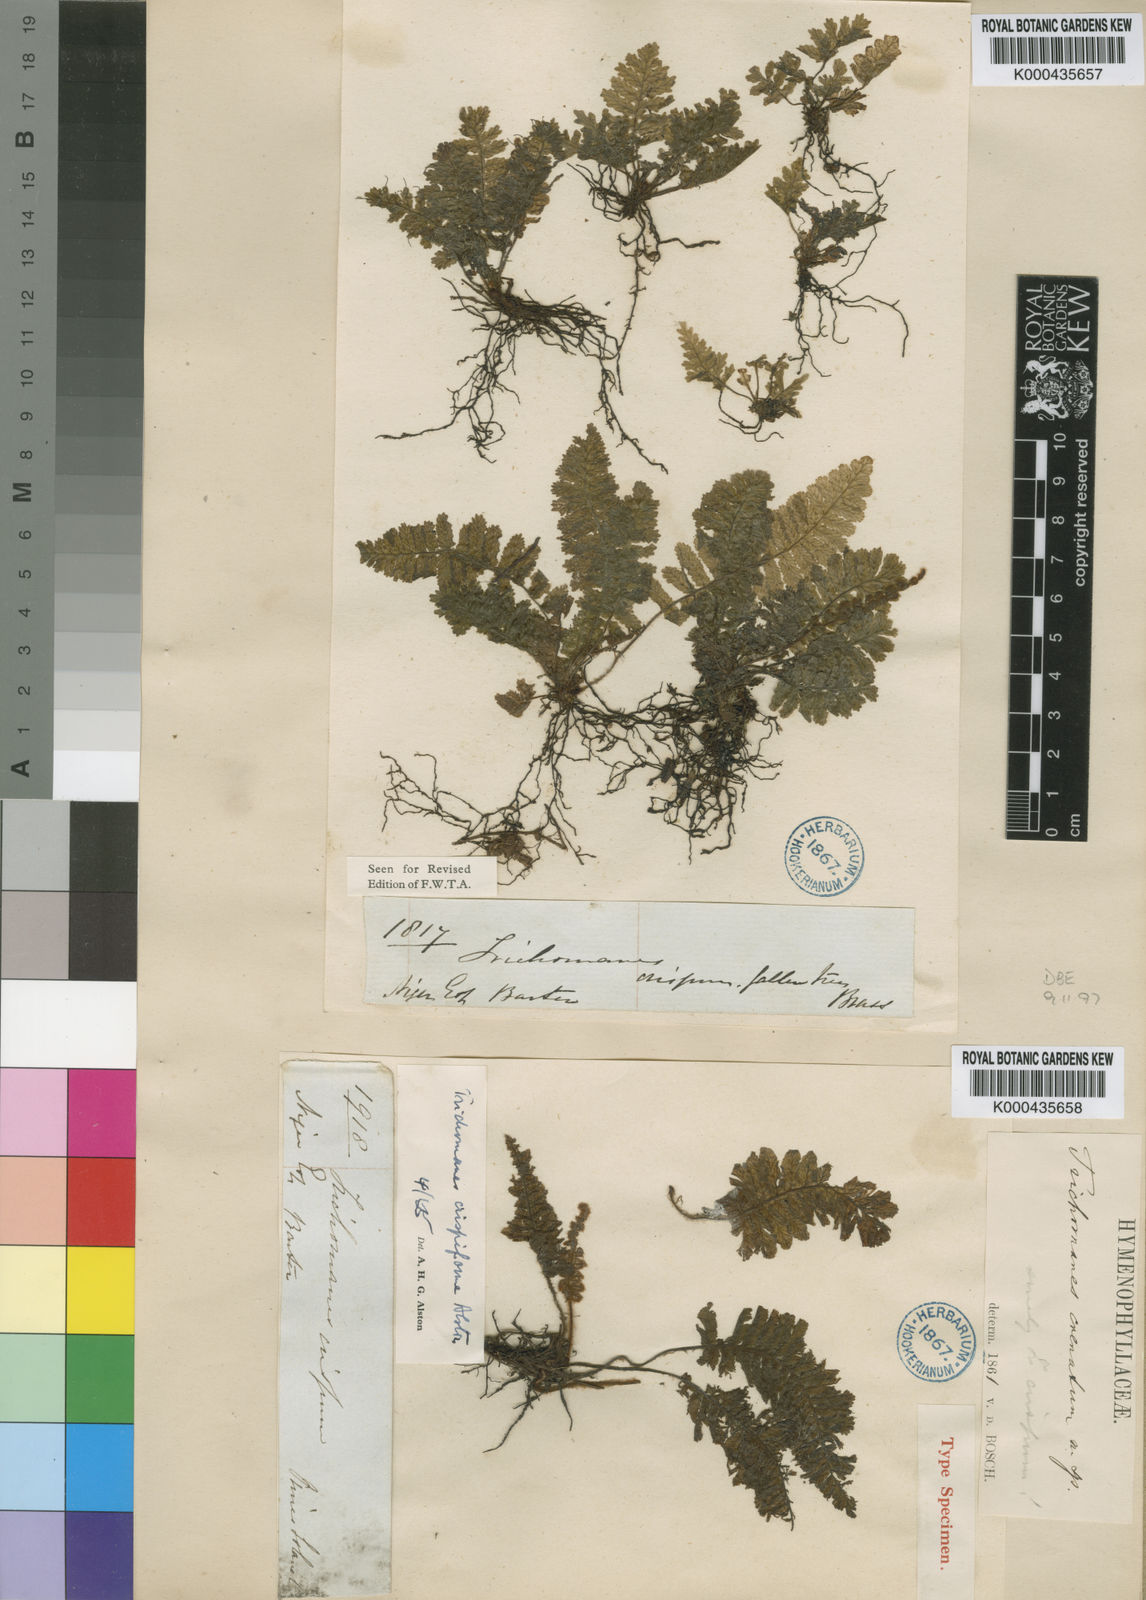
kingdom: Plantae
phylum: Tracheophyta
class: Polypodiopsida
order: Hymenophyllales
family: Hymenophyllaceae
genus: Trichomanes
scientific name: Trichomanes crispiforme
